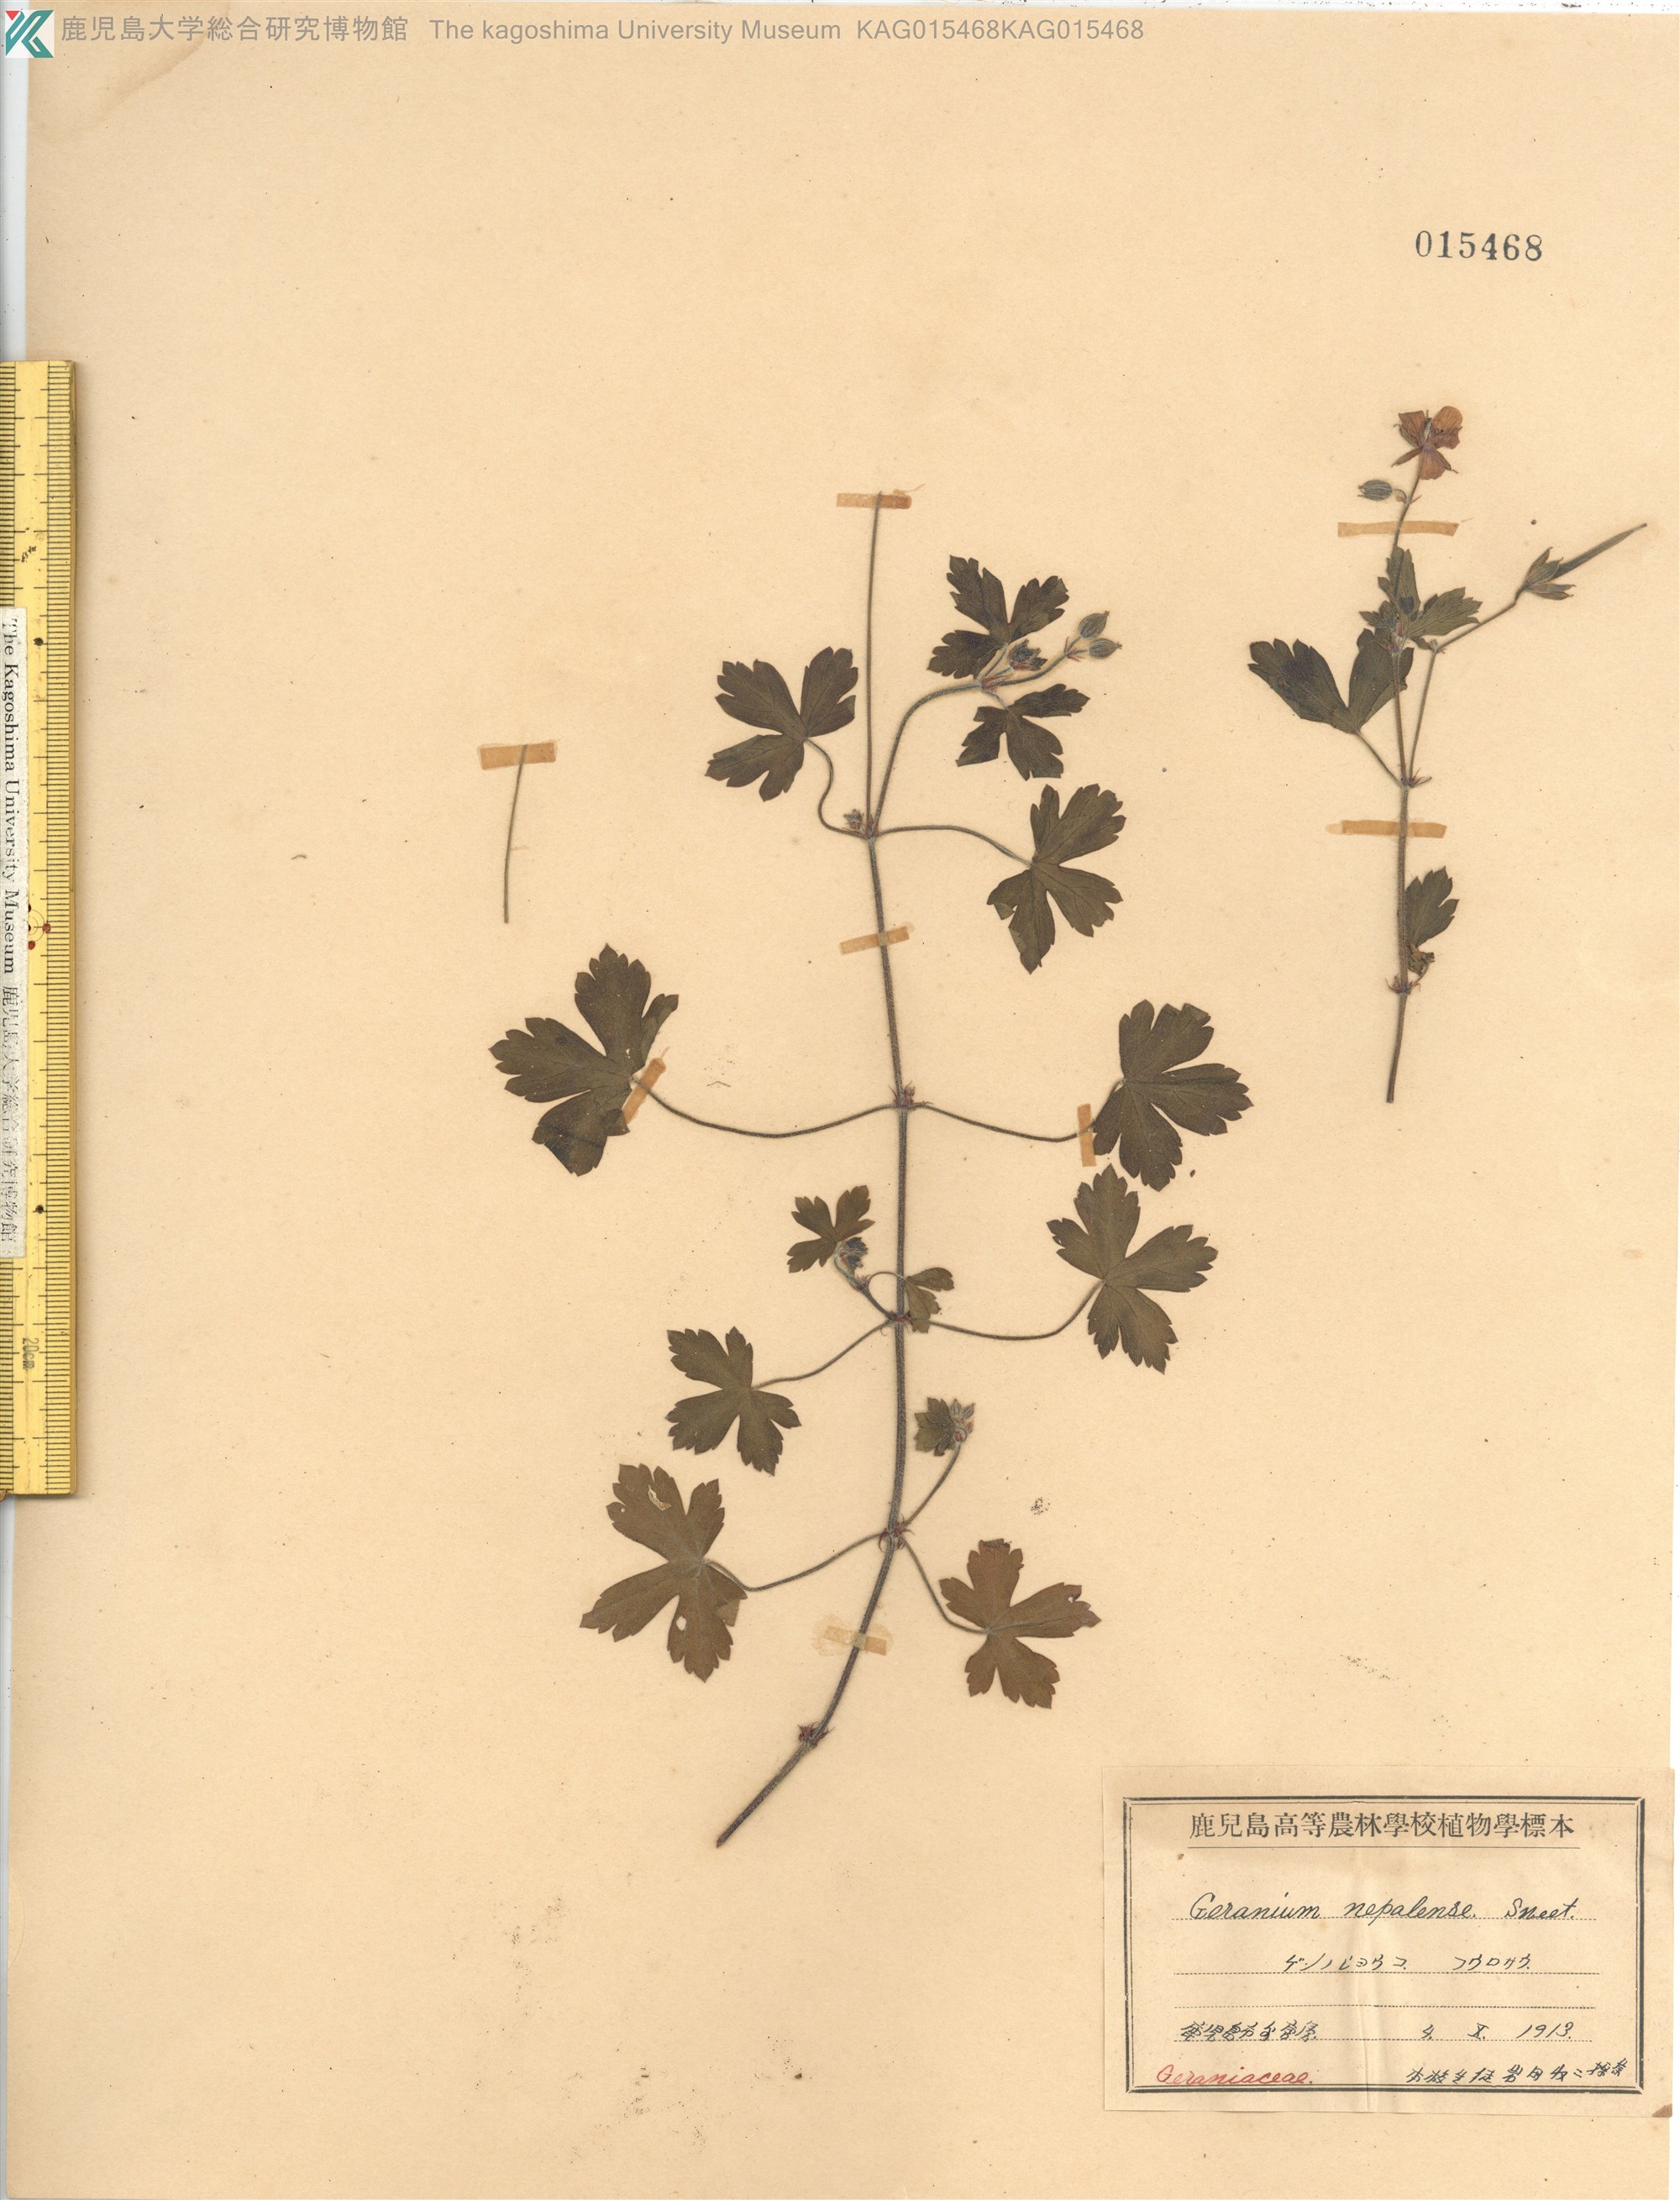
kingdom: Plantae
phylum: Tracheophyta
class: Magnoliopsida
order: Geraniales
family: Geraniaceae
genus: Geranium
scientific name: Geranium thunbergii
